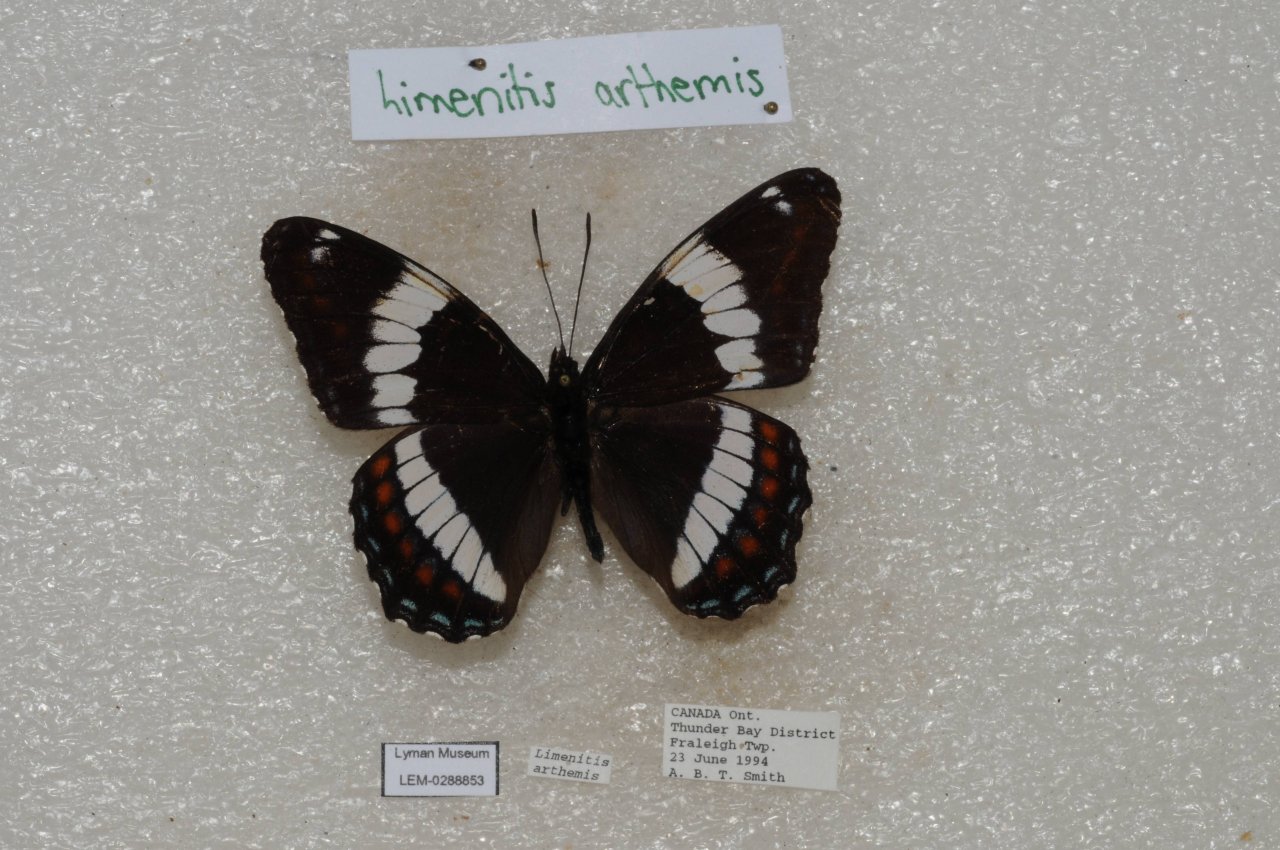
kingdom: Animalia
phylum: Arthropoda
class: Insecta
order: Lepidoptera
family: Nymphalidae
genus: Limenitis
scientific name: Limenitis arthemis
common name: Red-spotted Admiral
